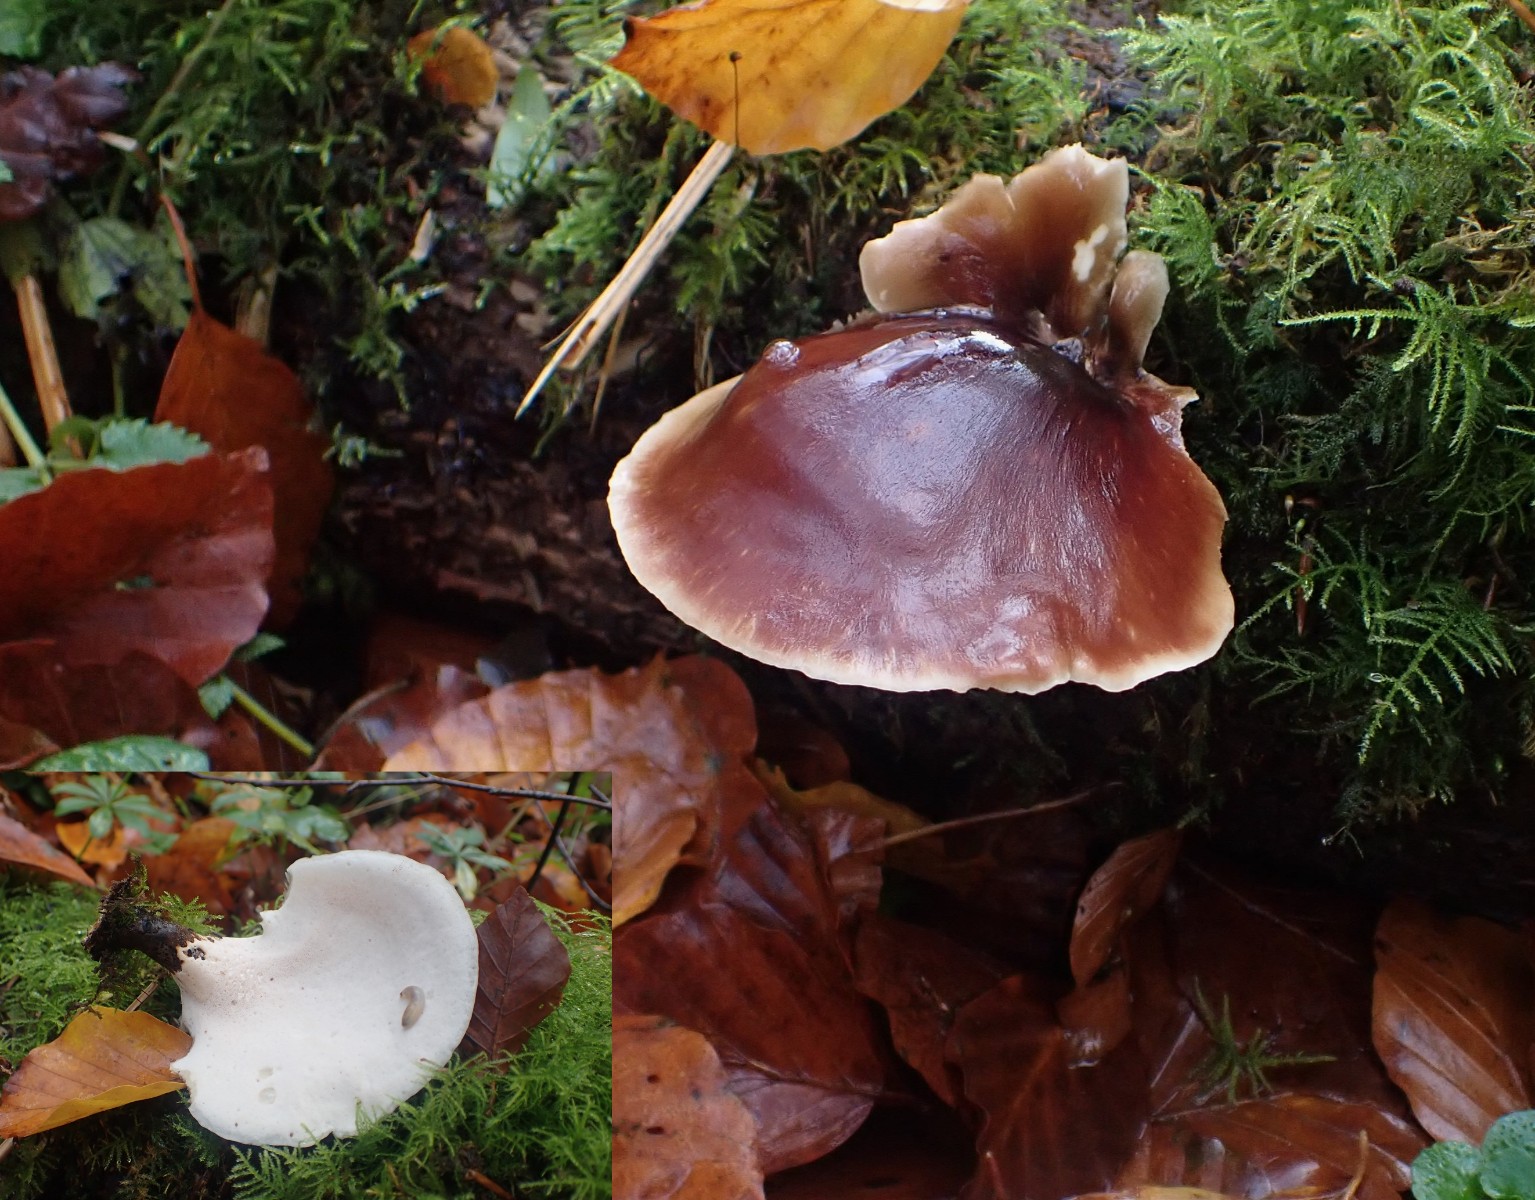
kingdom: Fungi
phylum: Basidiomycota
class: Agaricomycetes
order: Polyporales
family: Polyporaceae
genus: Picipes
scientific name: Picipes badius
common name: kastaniebrun stilkporesvamp
